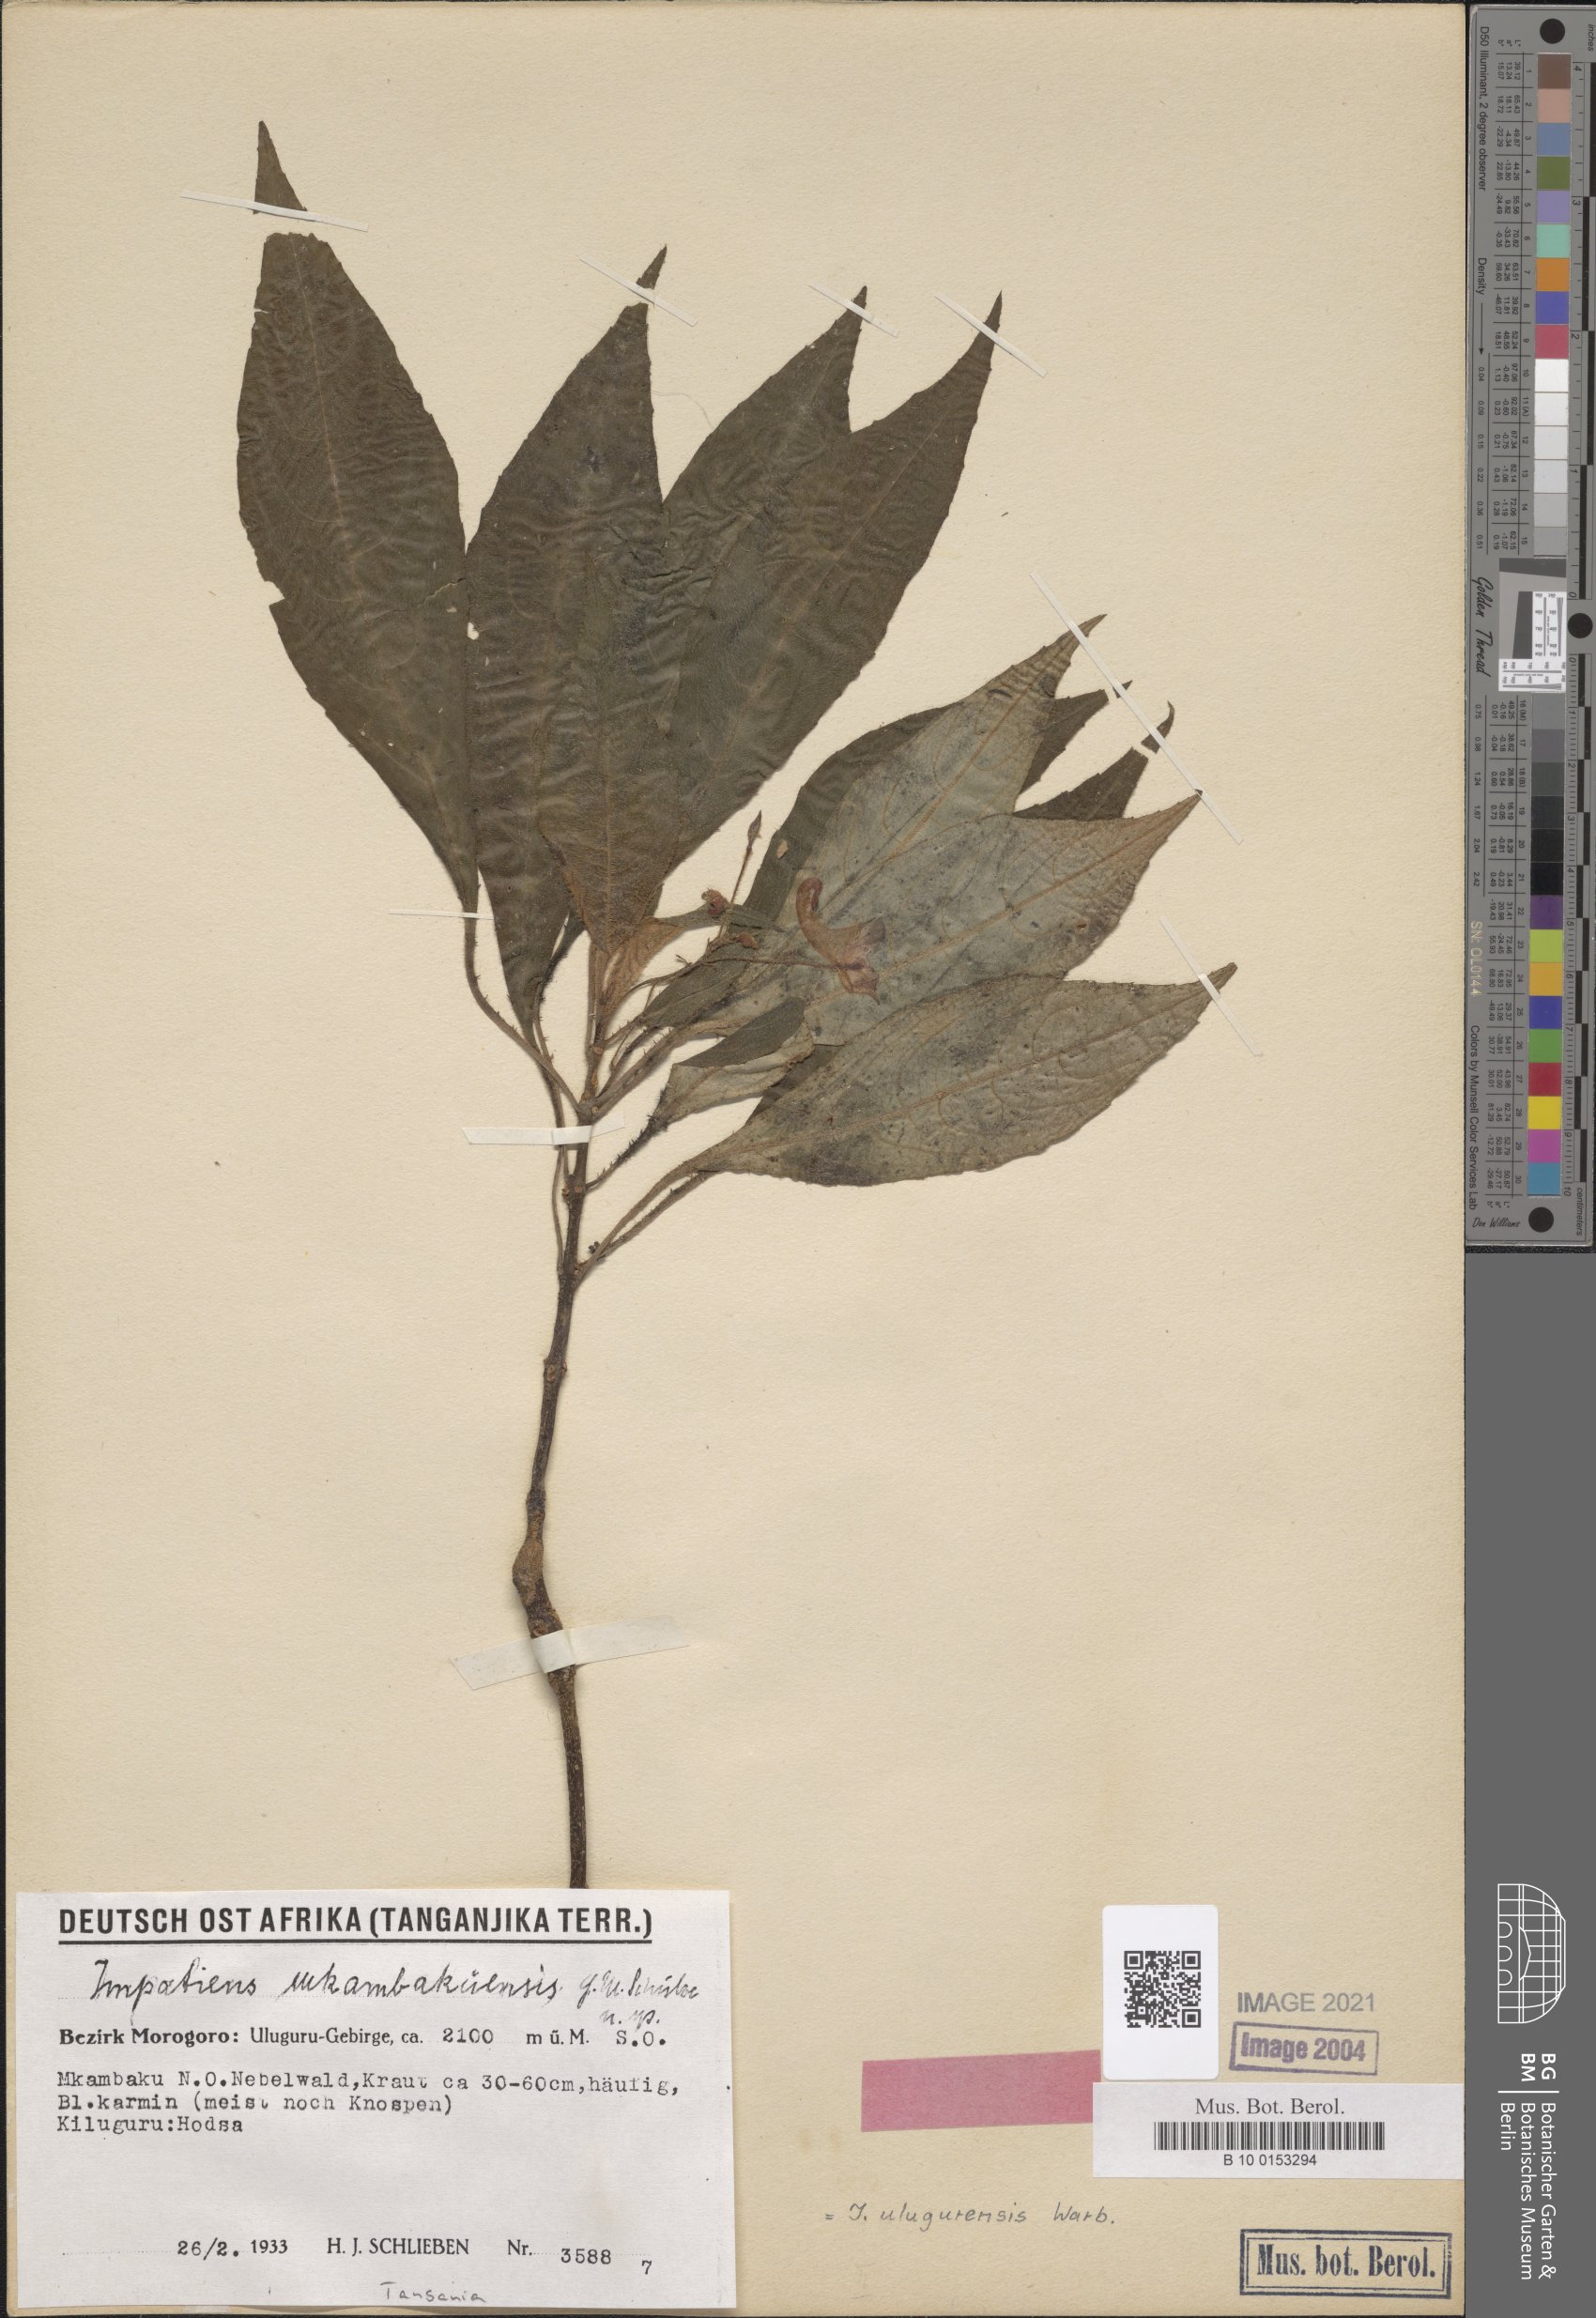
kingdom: Plantae
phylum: Tracheophyta
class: Magnoliopsida
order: Ericales
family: Balsaminaceae
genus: Impatiens
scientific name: Impatiens ulugurensis
